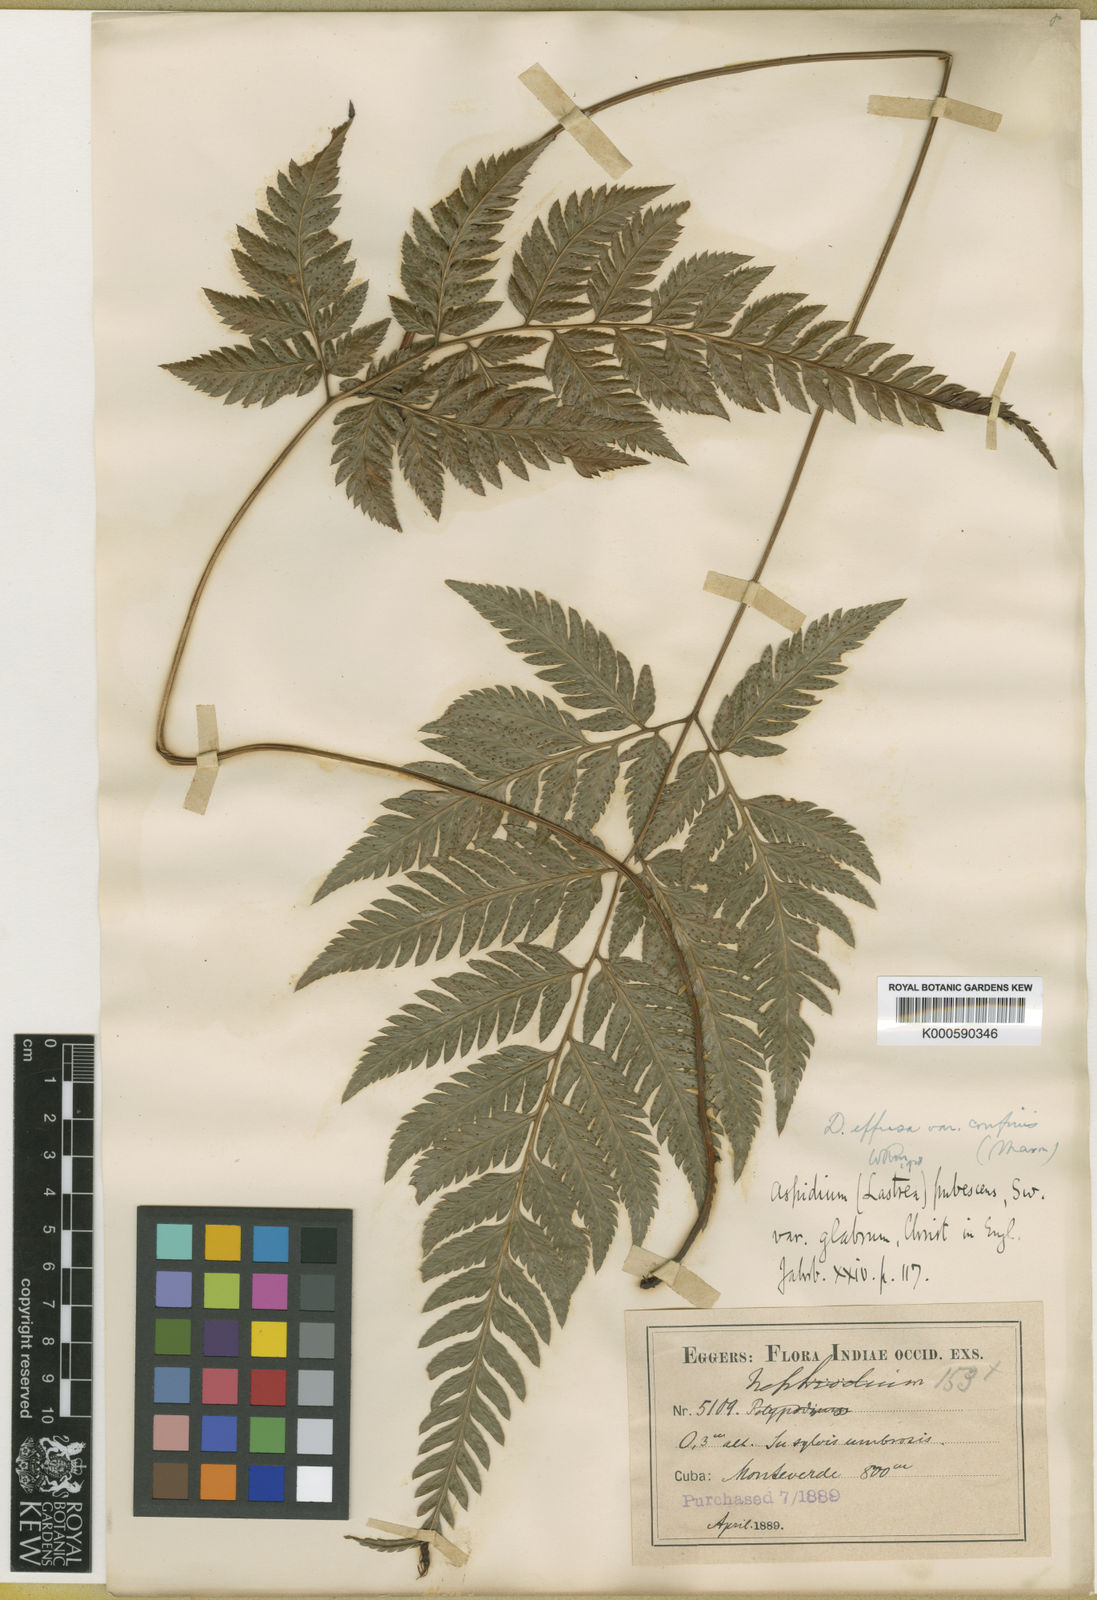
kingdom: Plantae
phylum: Tracheophyta
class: Polypodiopsida
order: Polypodiales
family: Dryopteridaceae
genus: Parapolystichum
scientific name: Parapolystichum effusum
